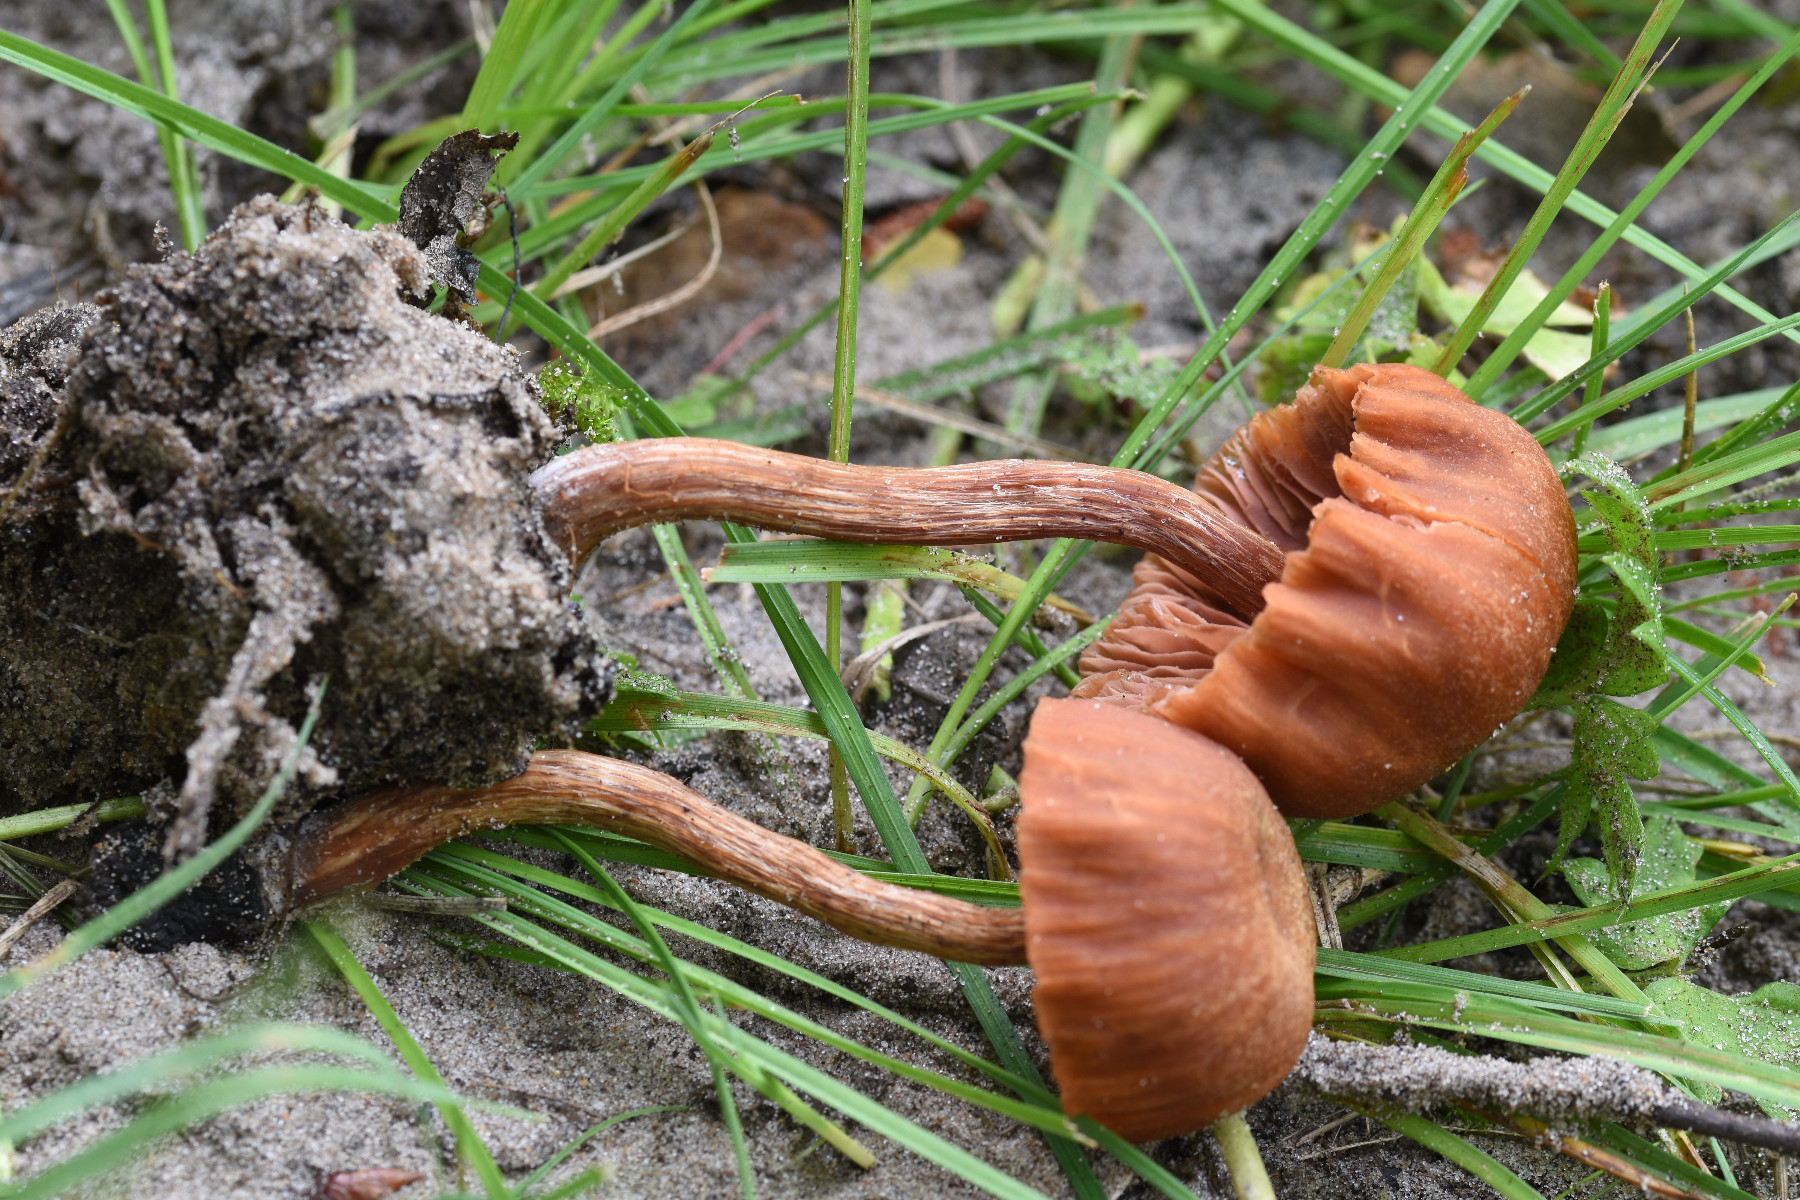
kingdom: Fungi
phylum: Basidiomycota
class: Agaricomycetes
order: Agaricales
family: Hydnangiaceae
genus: Laccaria
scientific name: Laccaria laccata
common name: rød ametysthat
